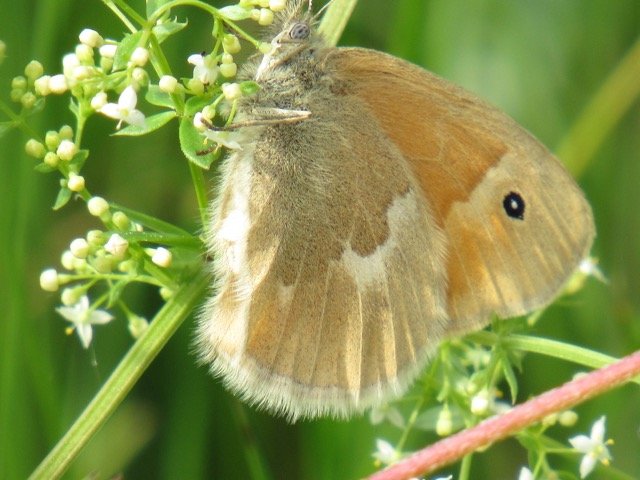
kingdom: Animalia
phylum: Arthropoda
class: Insecta
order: Lepidoptera
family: Nymphalidae
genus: Coenonympha
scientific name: Coenonympha tullia
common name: Large Heath
